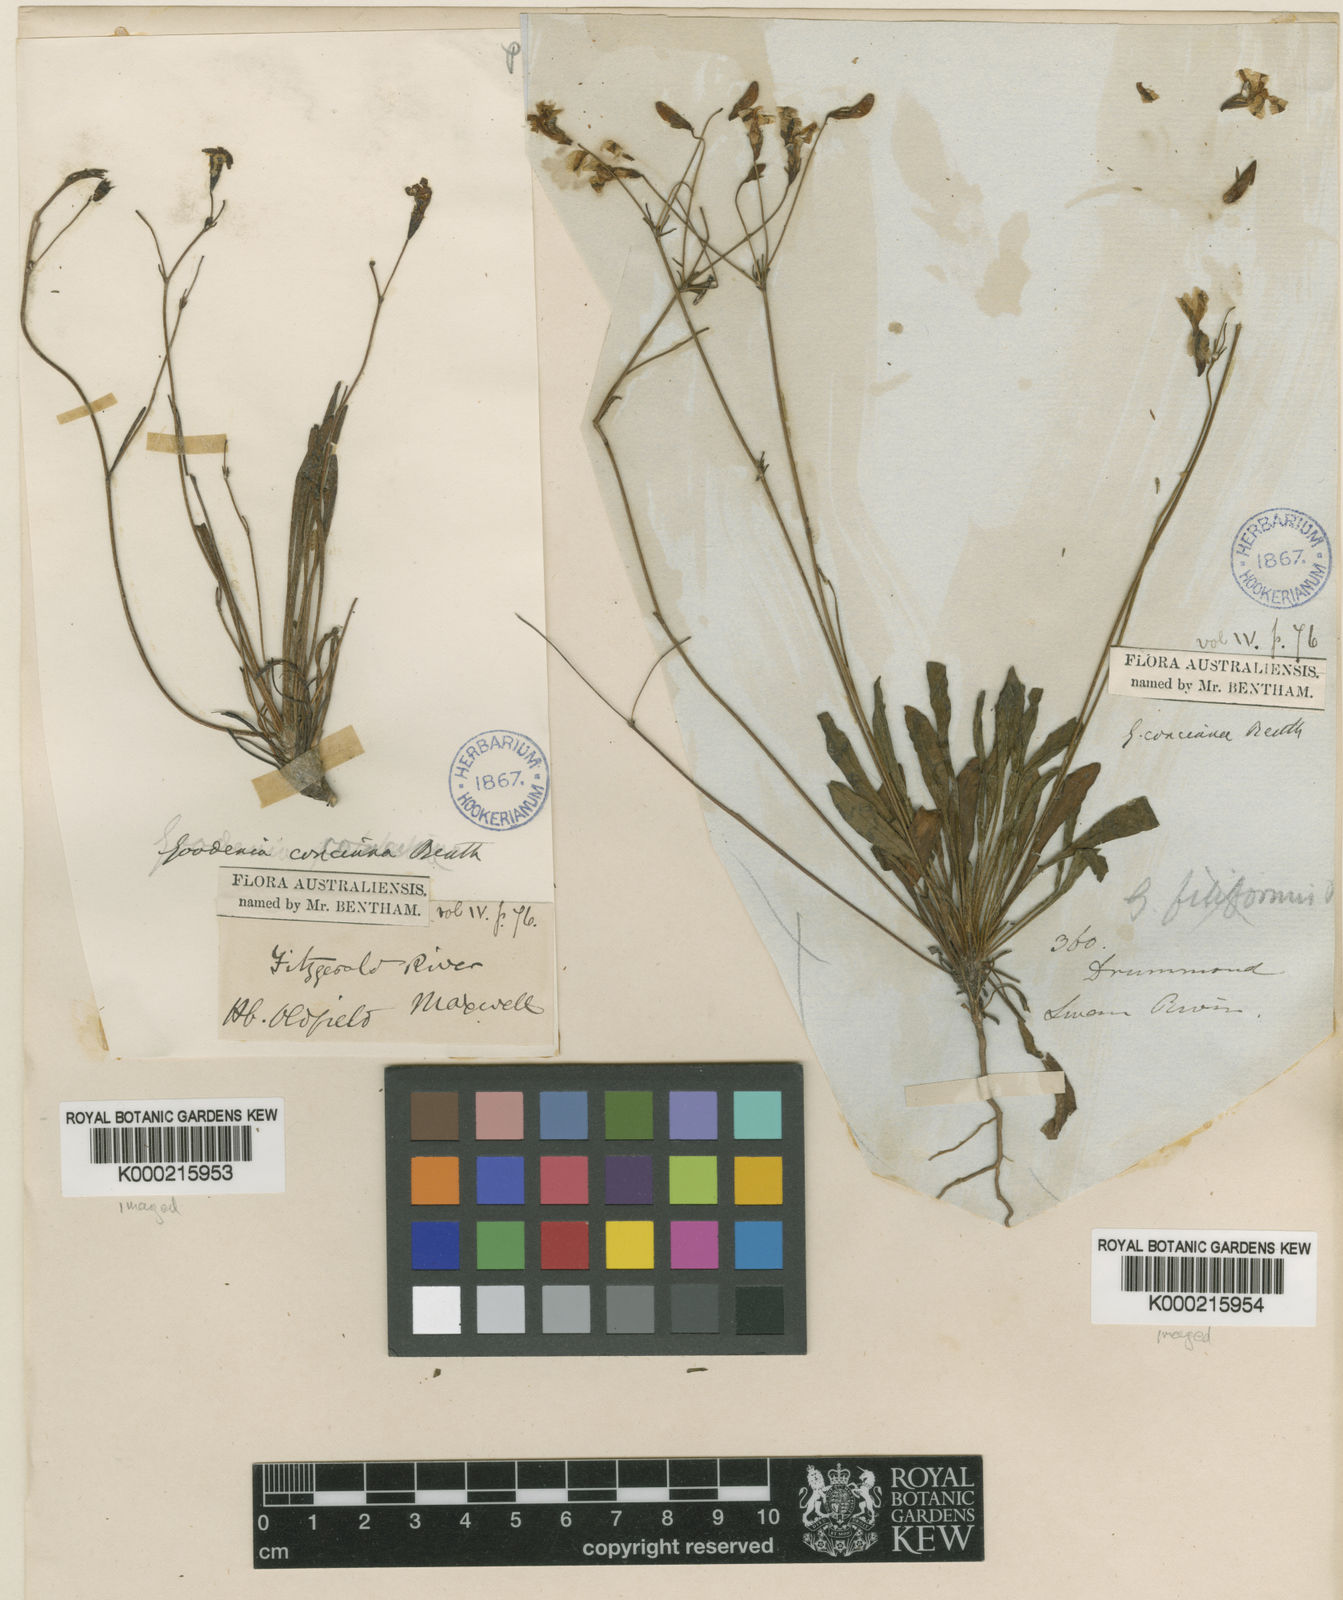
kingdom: Plantae
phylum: Tracheophyta
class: Magnoliopsida
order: Asterales
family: Goodeniaceae
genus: Goodenia
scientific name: Goodenia concinna
